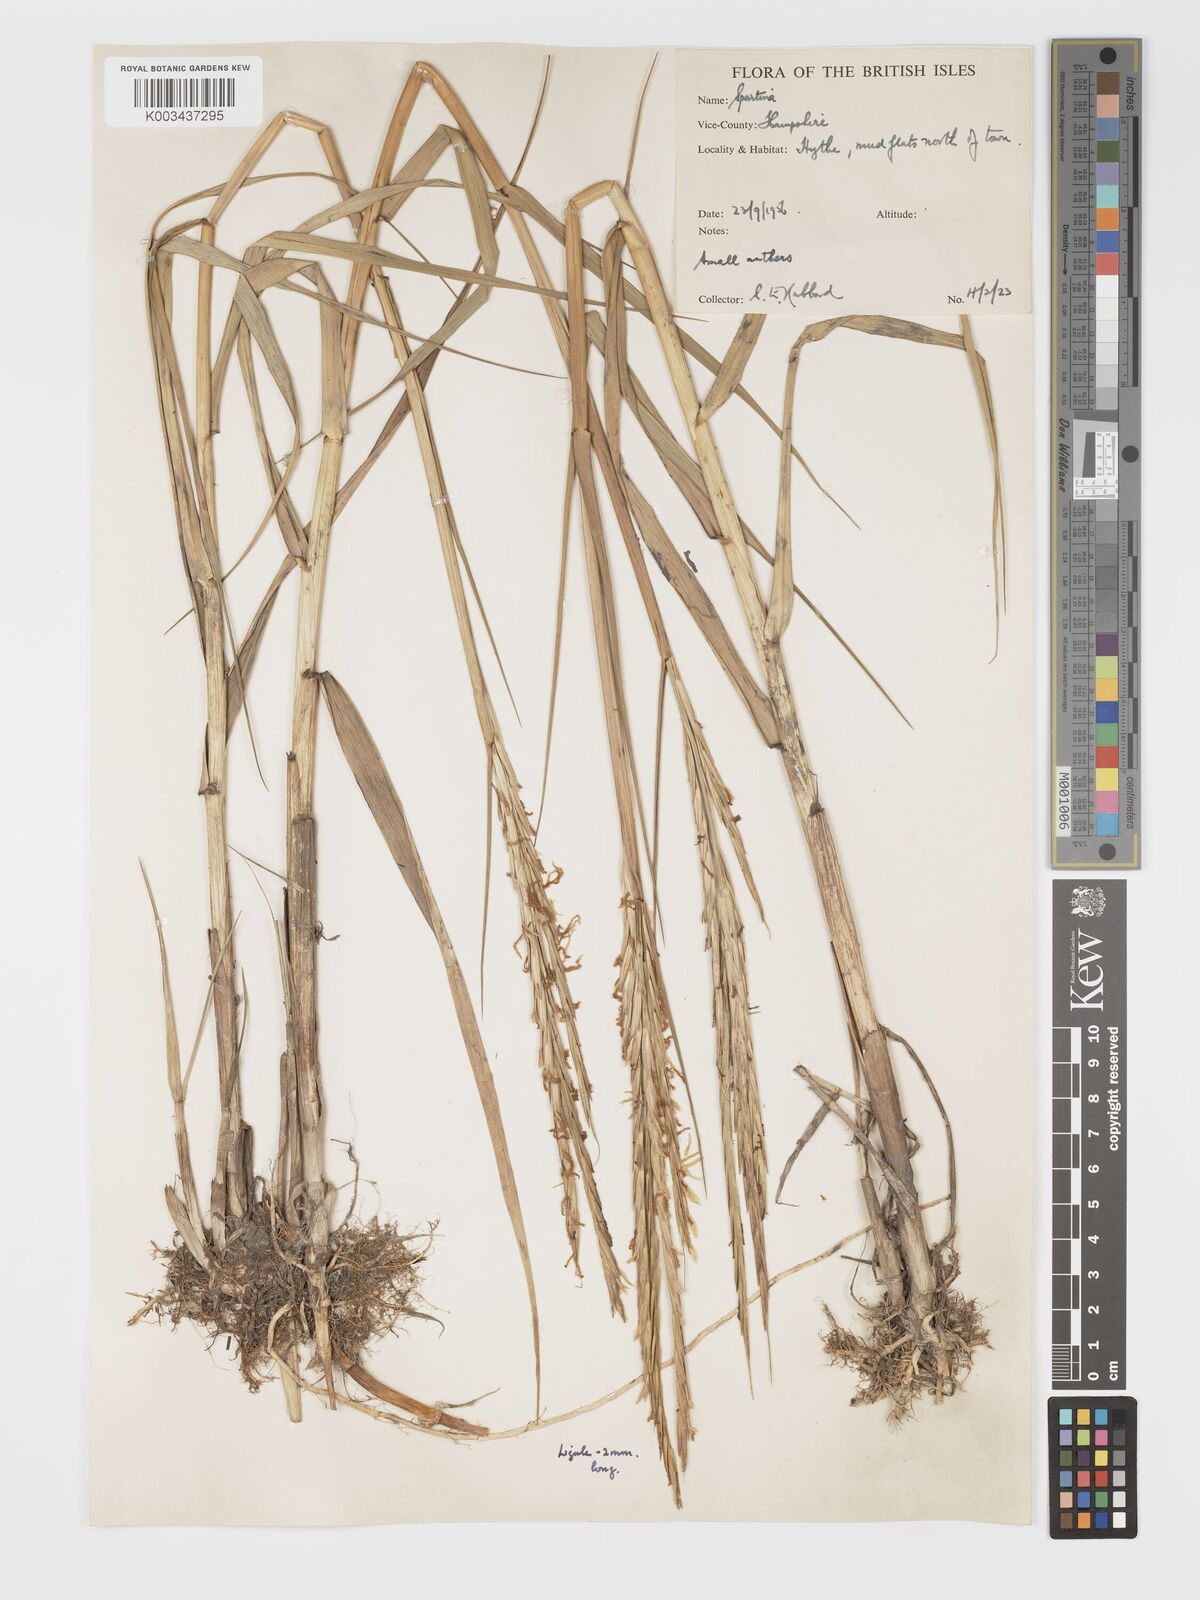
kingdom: Plantae
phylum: Tracheophyta
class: Liliopsida
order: Poales
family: Poaceae
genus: Sporobolus
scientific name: Sporobolus townsendii
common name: Townsend's cordgrass
